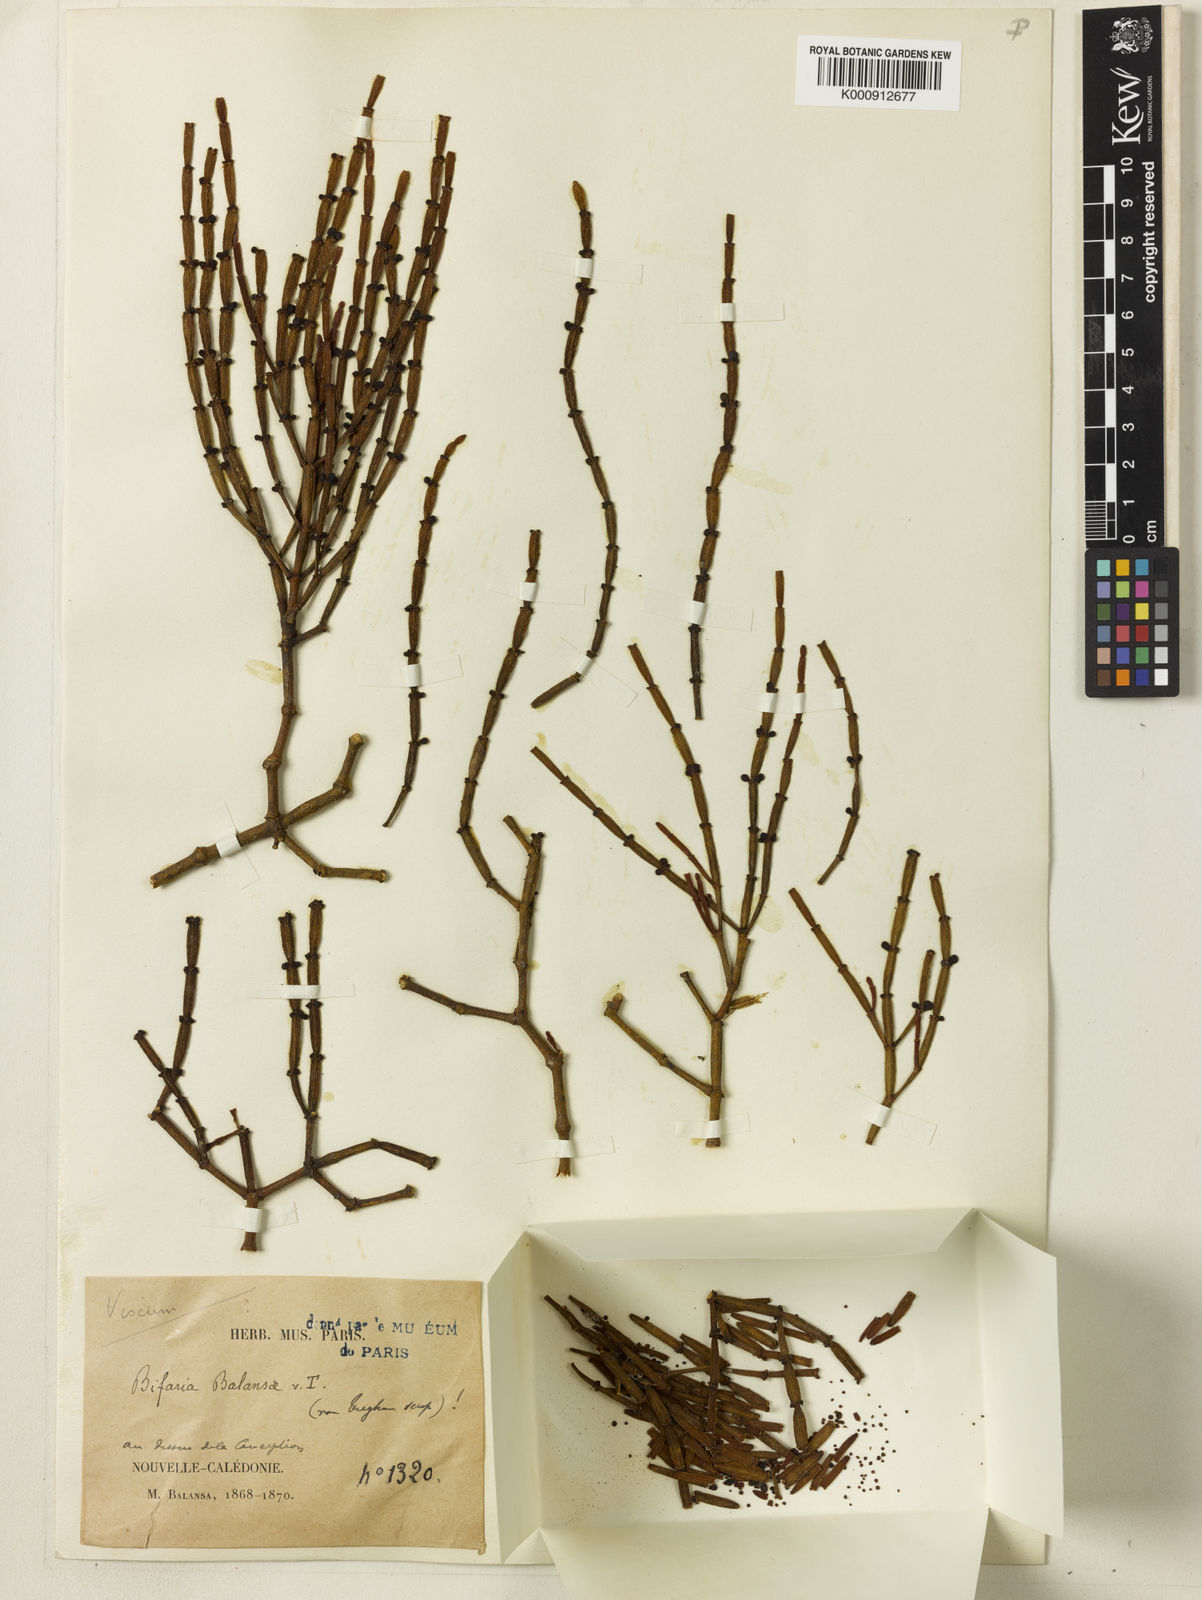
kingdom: Plantae
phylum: Tracheophyta
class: Magnoliopsida
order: Santalales
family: Viscaceae
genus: Korthalsella
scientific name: Korthalsella disticha
